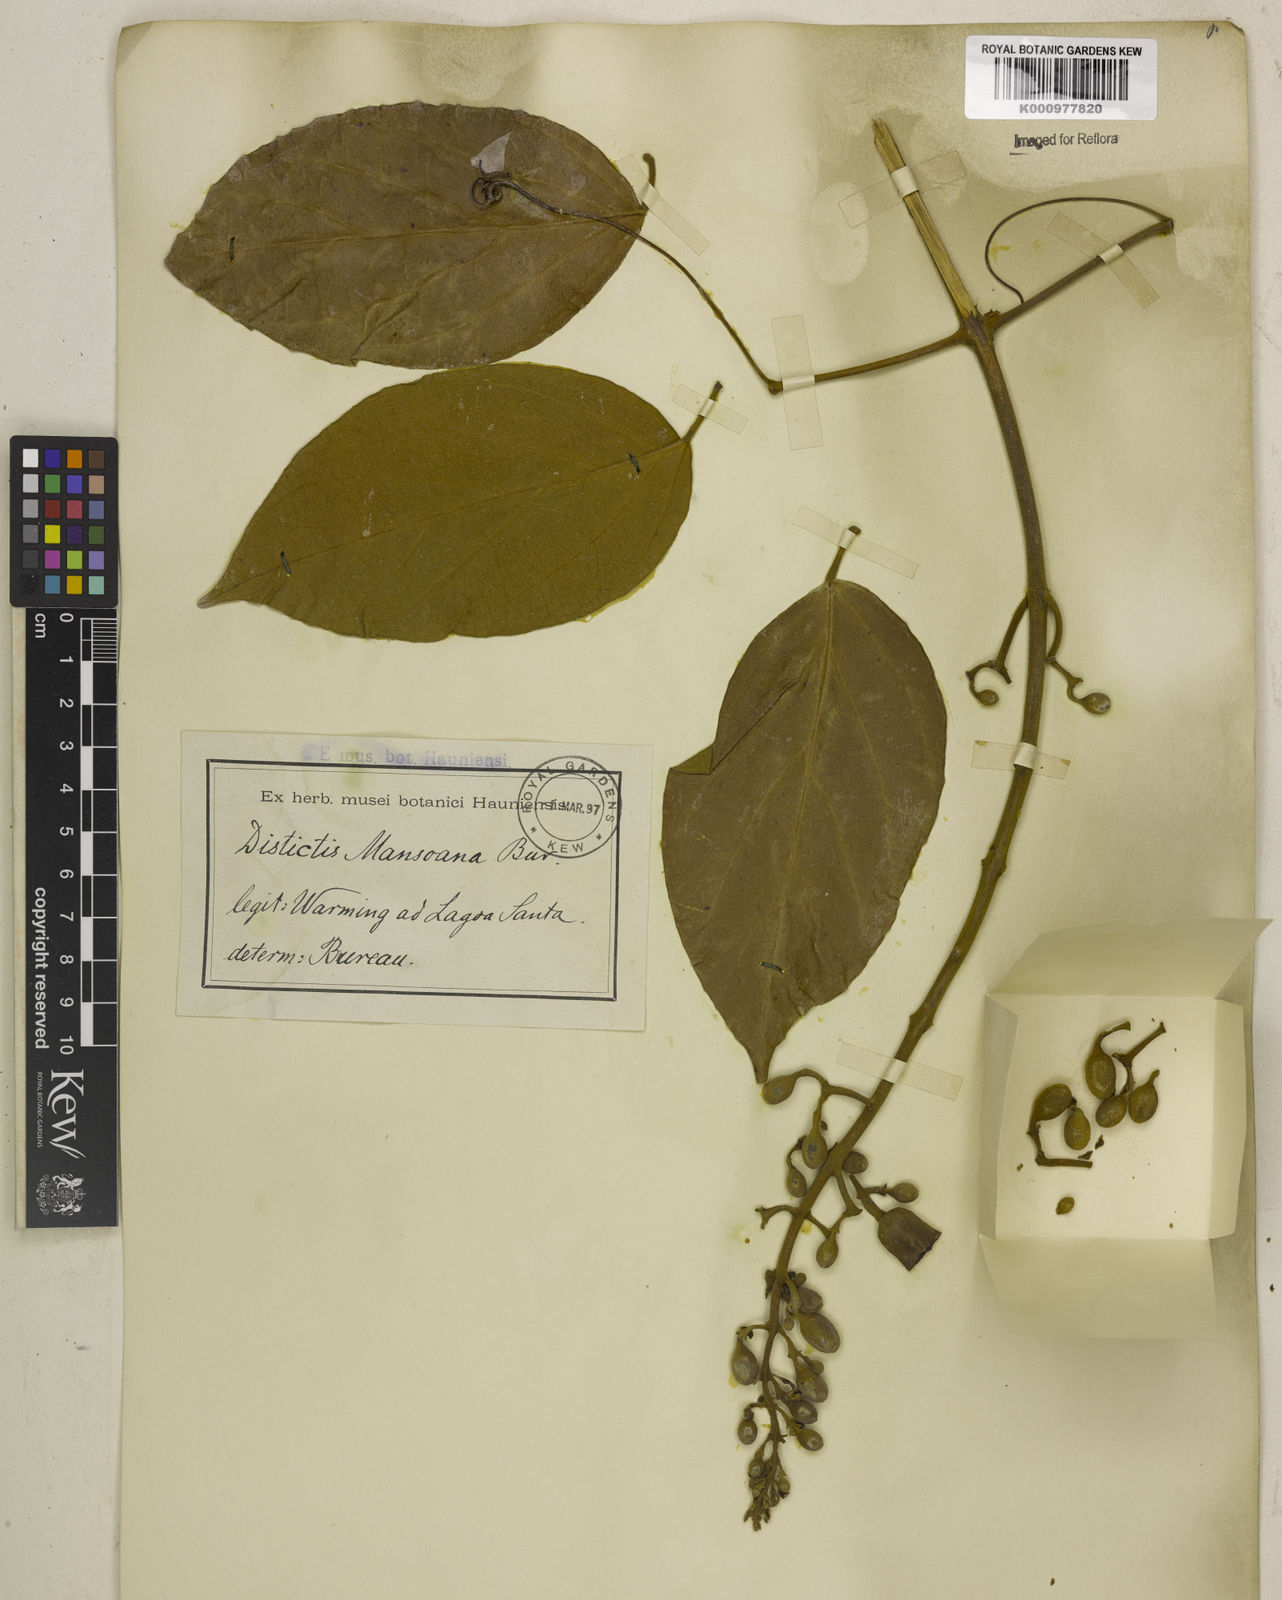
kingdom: Plantae
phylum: Tracheophyta
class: Magnoliopsida
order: Lamiales
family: Bignoniaceae
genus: Amphilophium
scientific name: Amphilophium mansoanum
